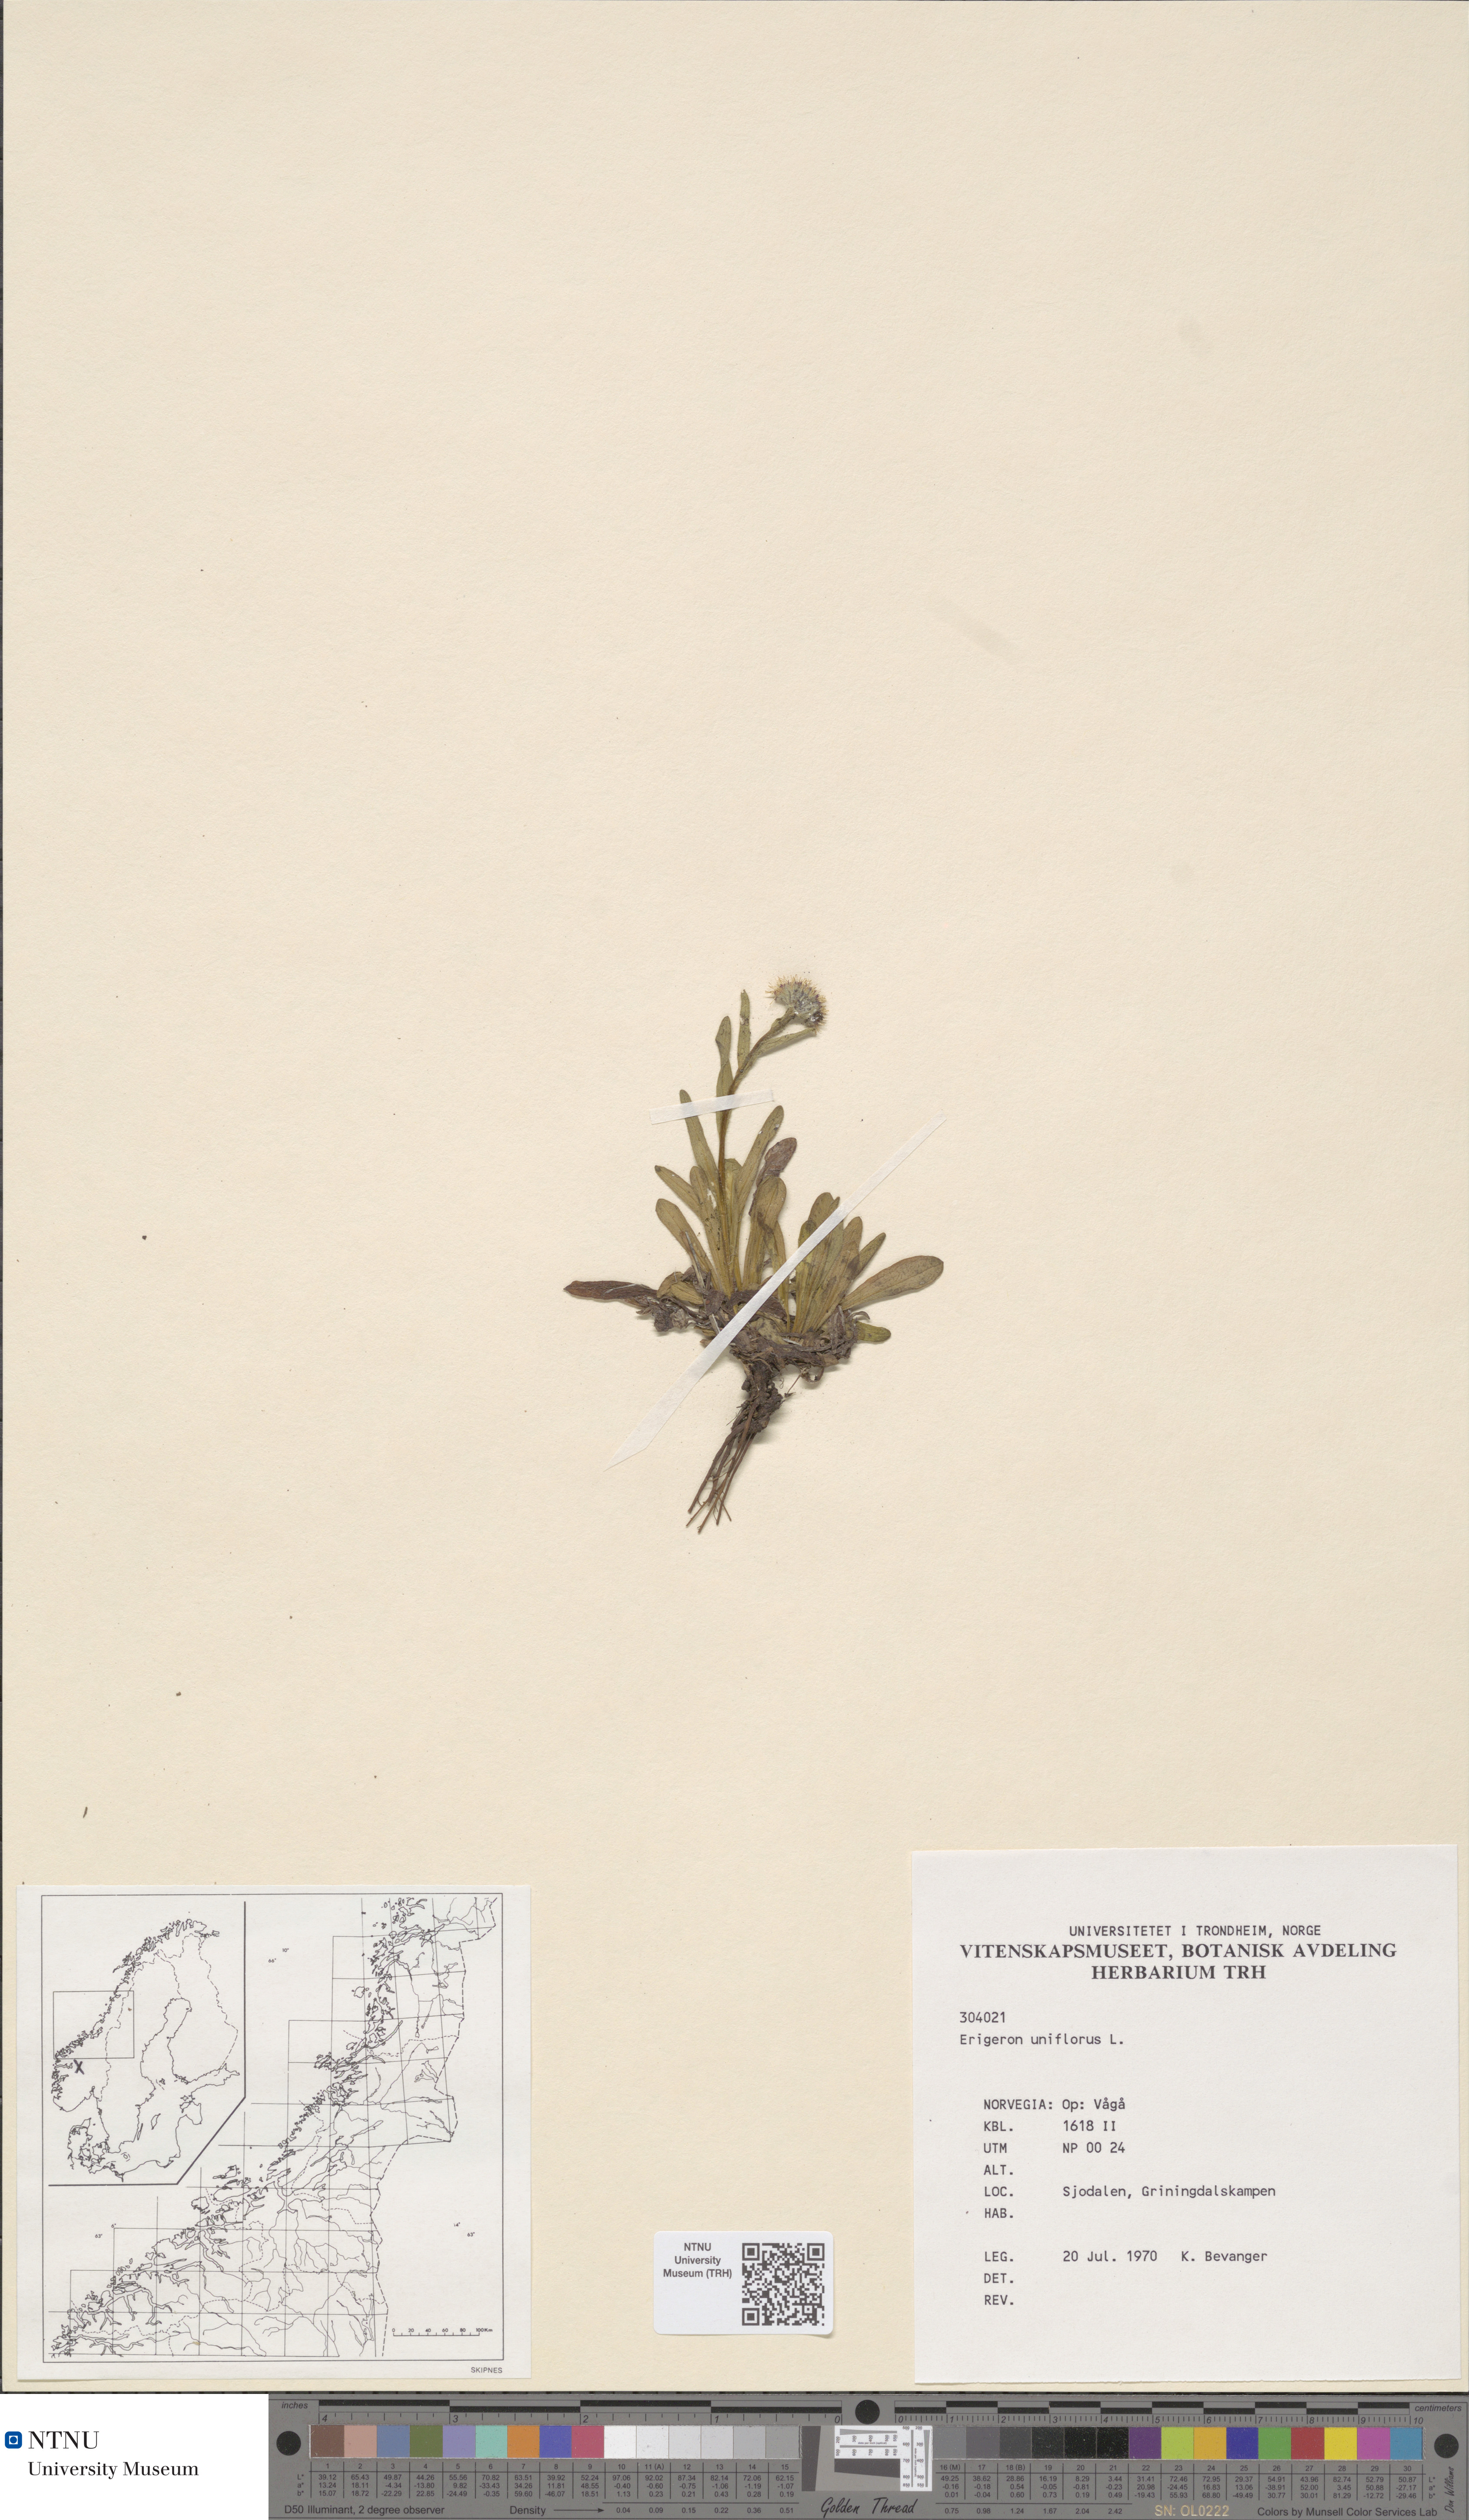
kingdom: Plantae
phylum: Tracheophyta
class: Magnoliopsida
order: Asterales
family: Asteraceae
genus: Erigeron
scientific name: Erigeron uniflorus
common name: Northern daisy
